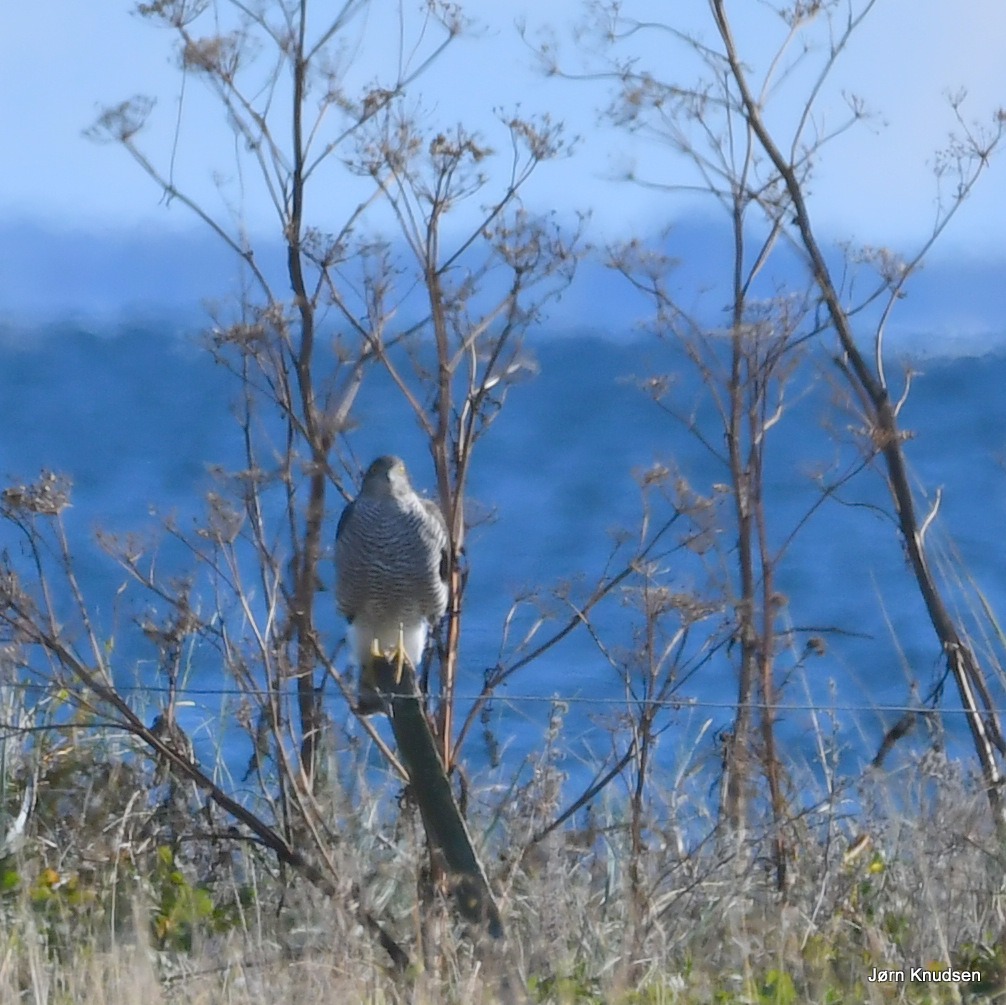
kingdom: Animalia
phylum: Chordata
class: Aves
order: Accipitriformes
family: Accipitridae
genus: Accipiter
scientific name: Accipiter nisus
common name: Spurvehøg
